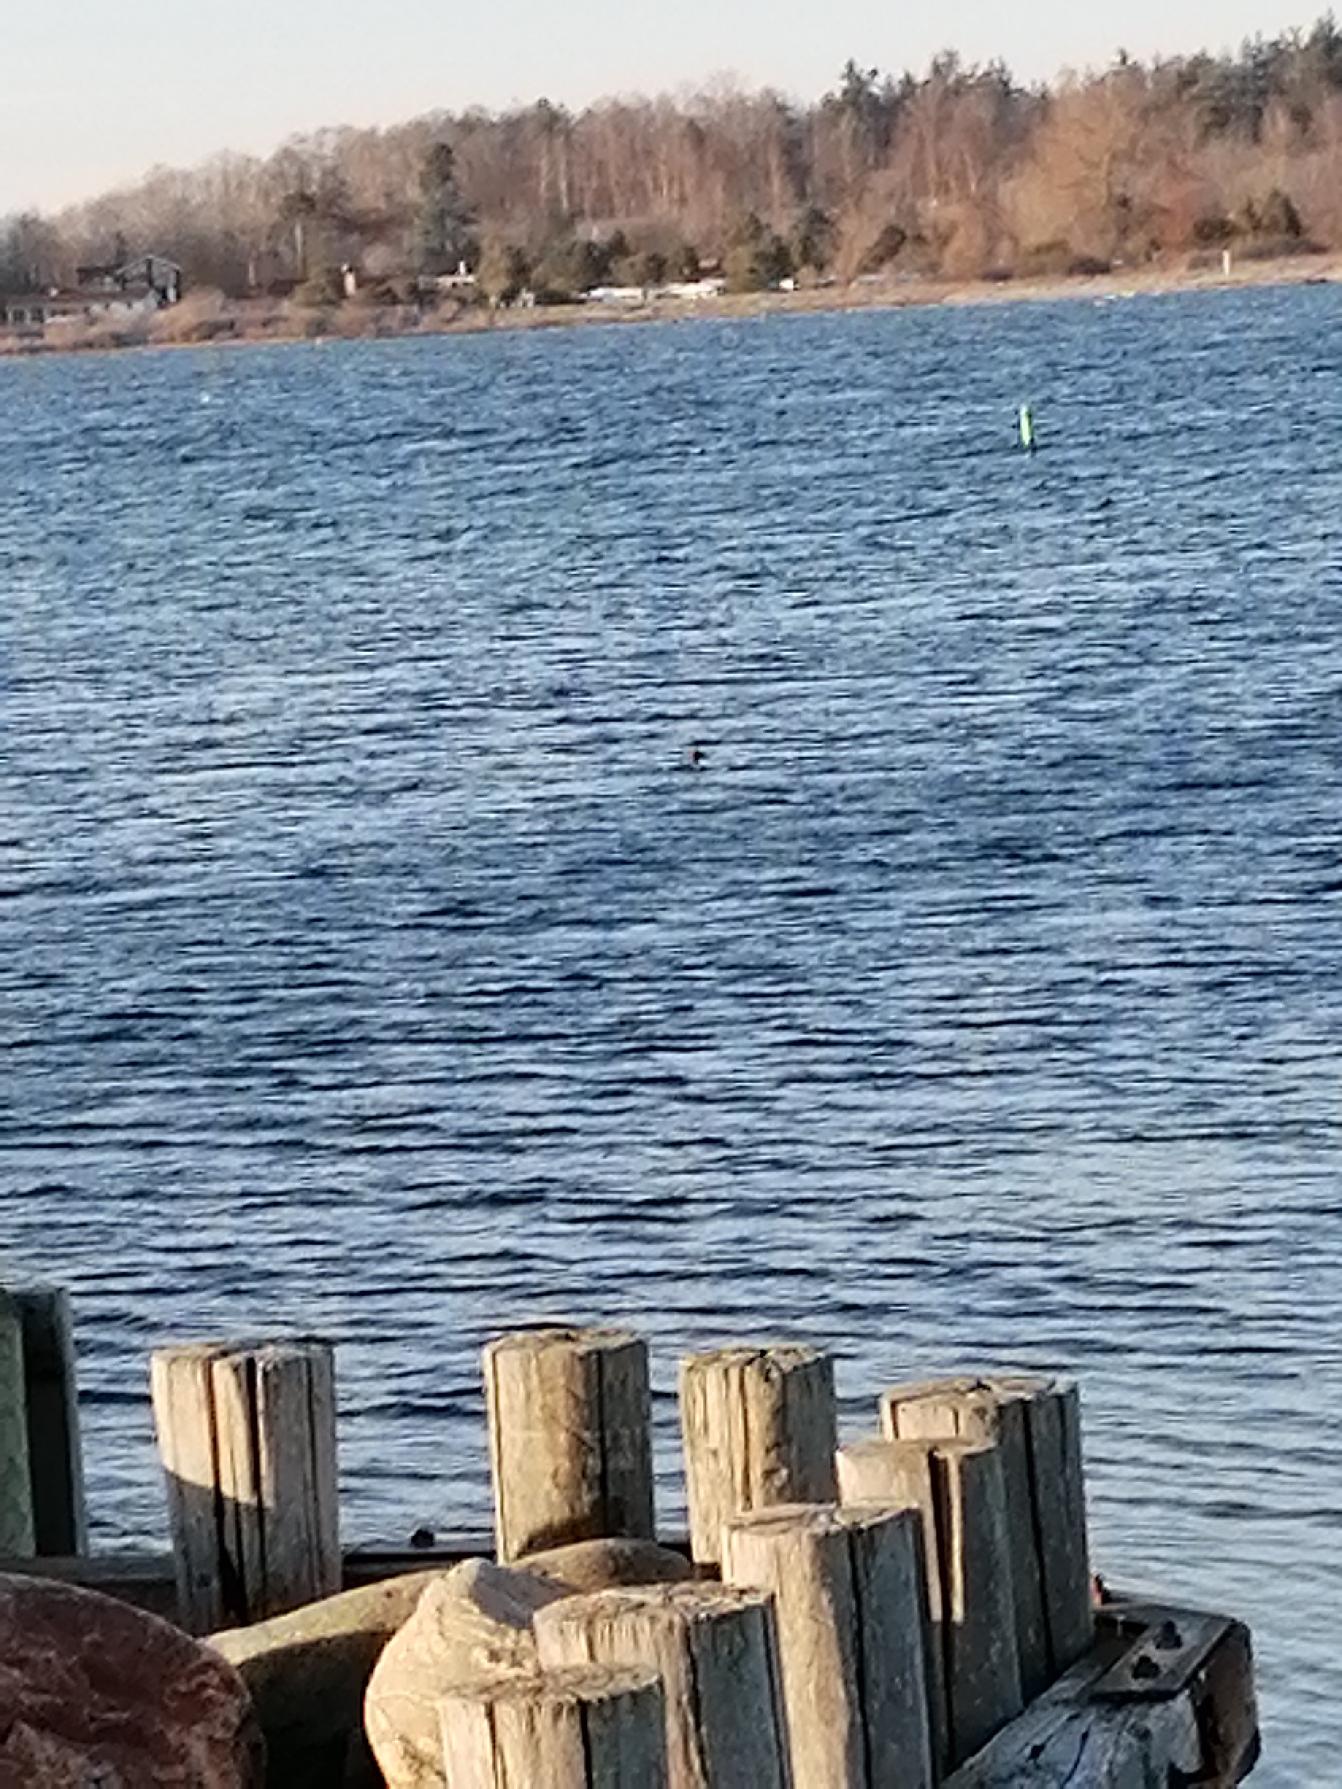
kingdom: Animalia
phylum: Chordata
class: Aves
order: Anseriformes
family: Anatidae
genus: Mergus
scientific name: Mergus merganser
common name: Stor skallesluger
